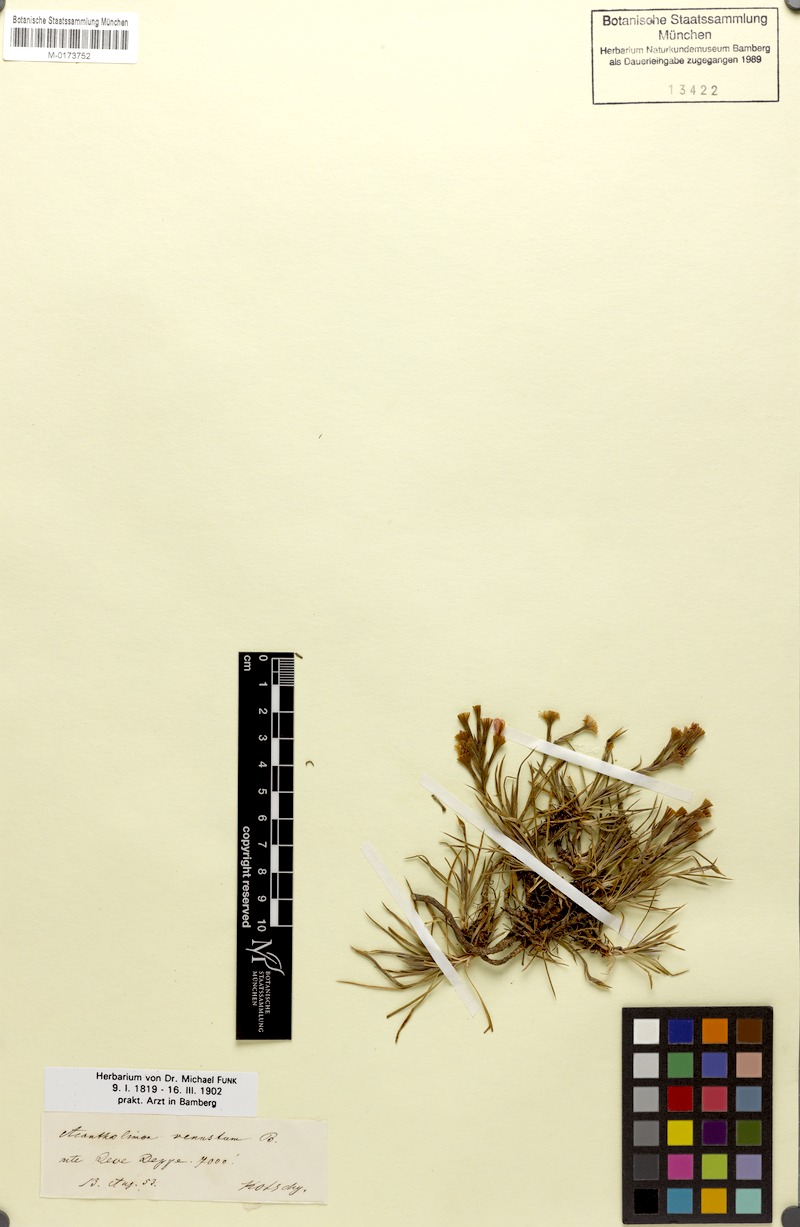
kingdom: Plantae
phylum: Tracheophyta
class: Magnoliopsida
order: Caryophyllales
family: Plumbaginaceae
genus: Acantholimon
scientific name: Acantholimon venustum
